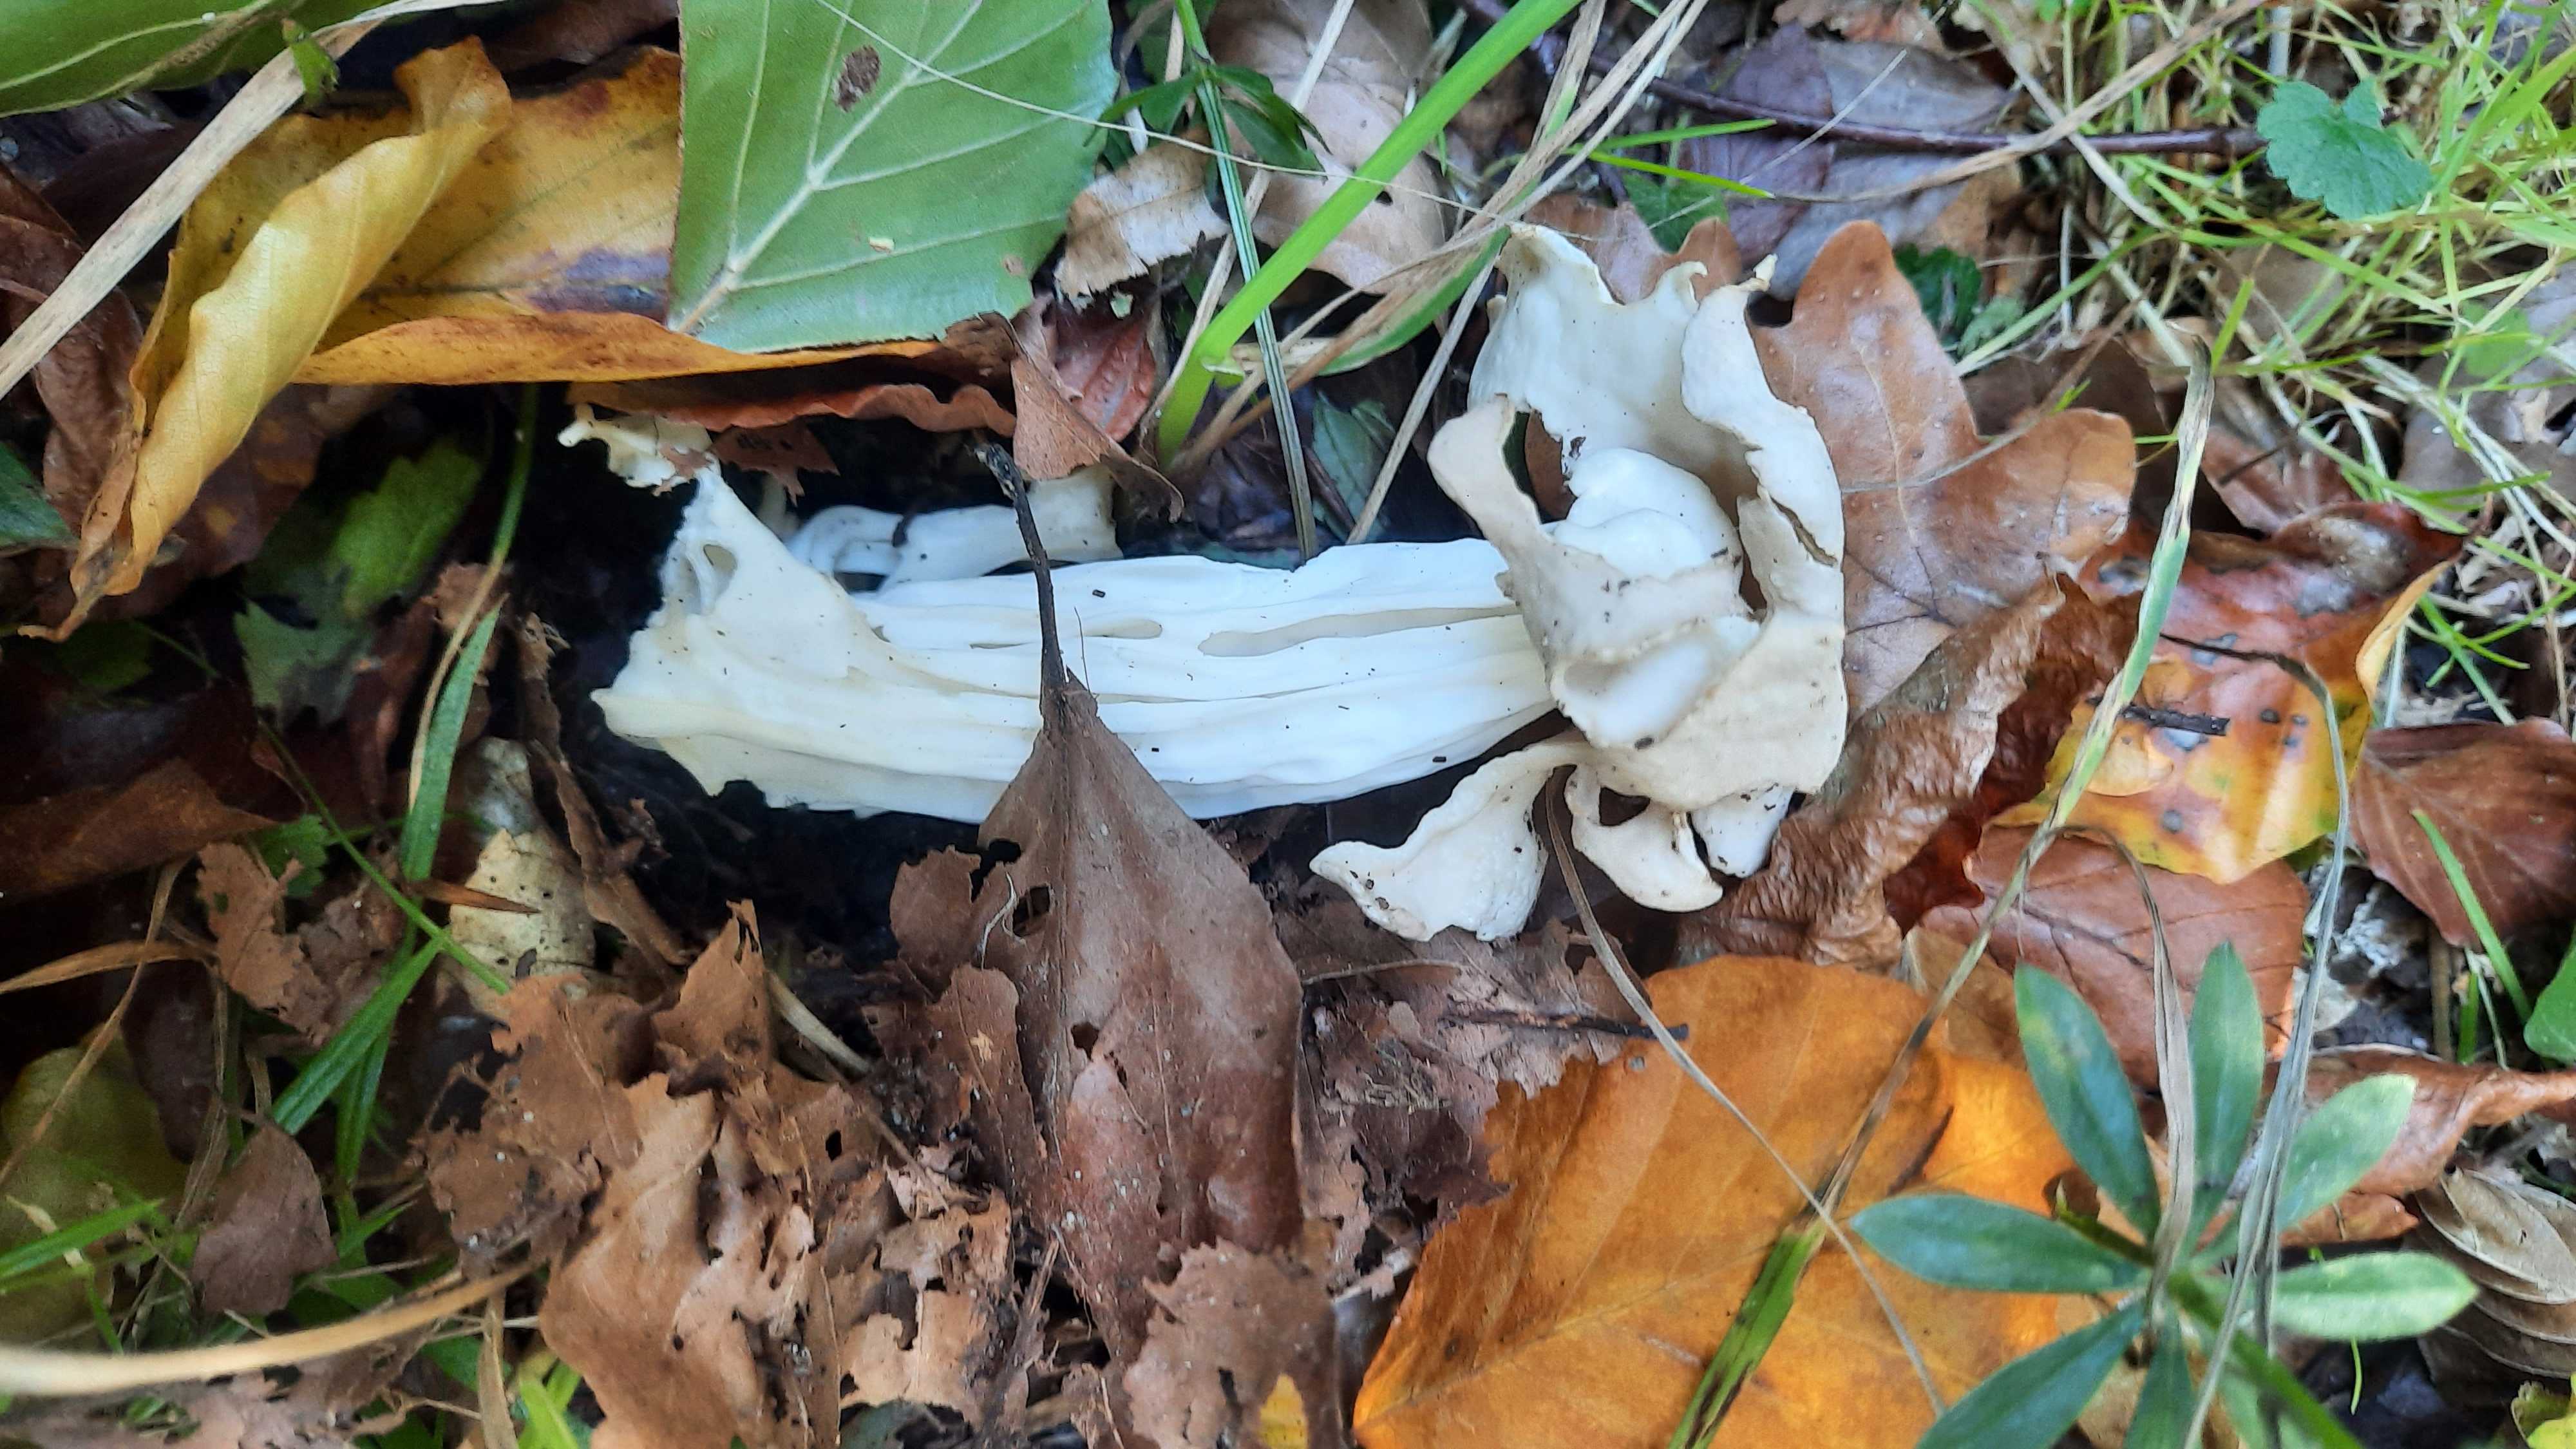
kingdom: Fungi
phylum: Ascomycota
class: Pezizomycetes
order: Pezizales
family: Helvellaceae
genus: Helvella
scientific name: Helvella crispa
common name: kruset foldhat
